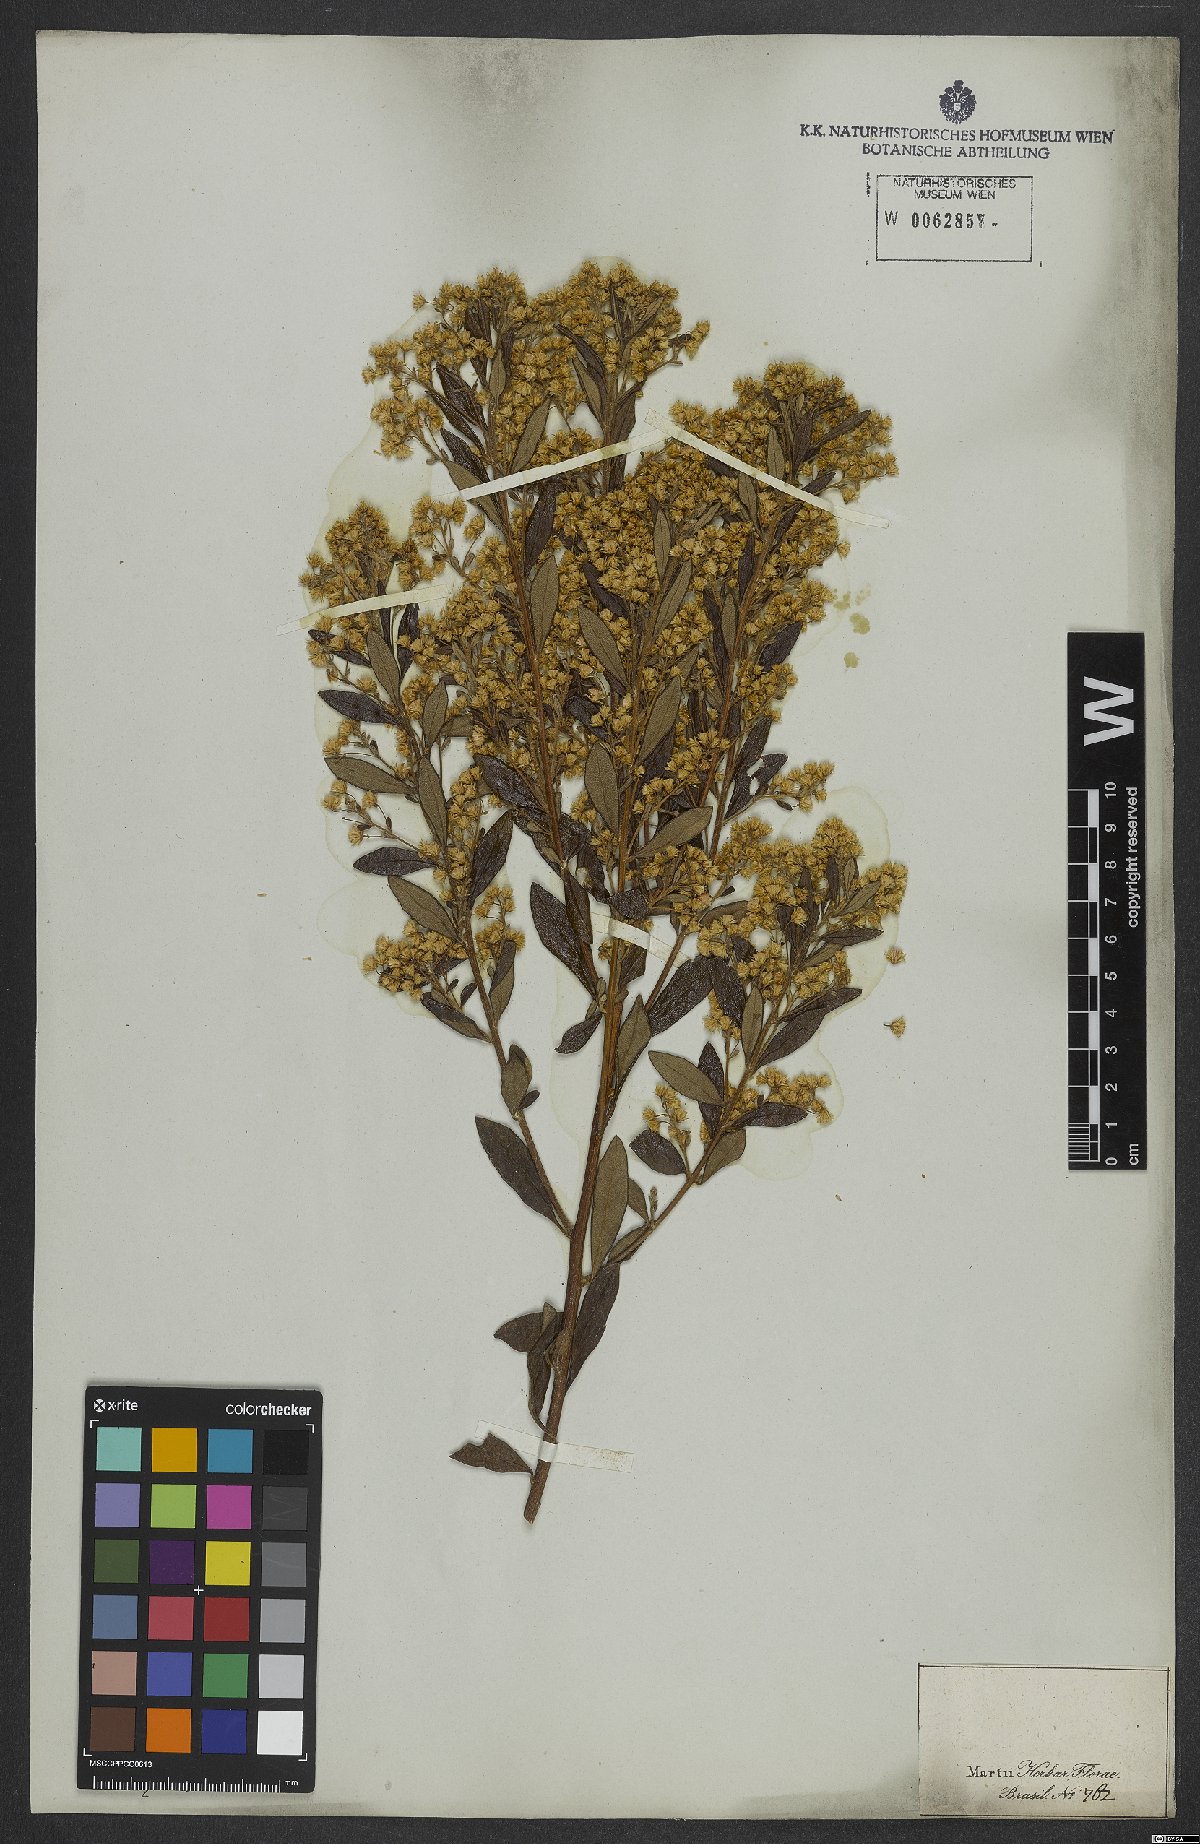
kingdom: Plantae
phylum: Tracheophyta
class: Magnoliopsida
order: Asterales
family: Asteraceae
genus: Baccharis
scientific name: Baccharis
